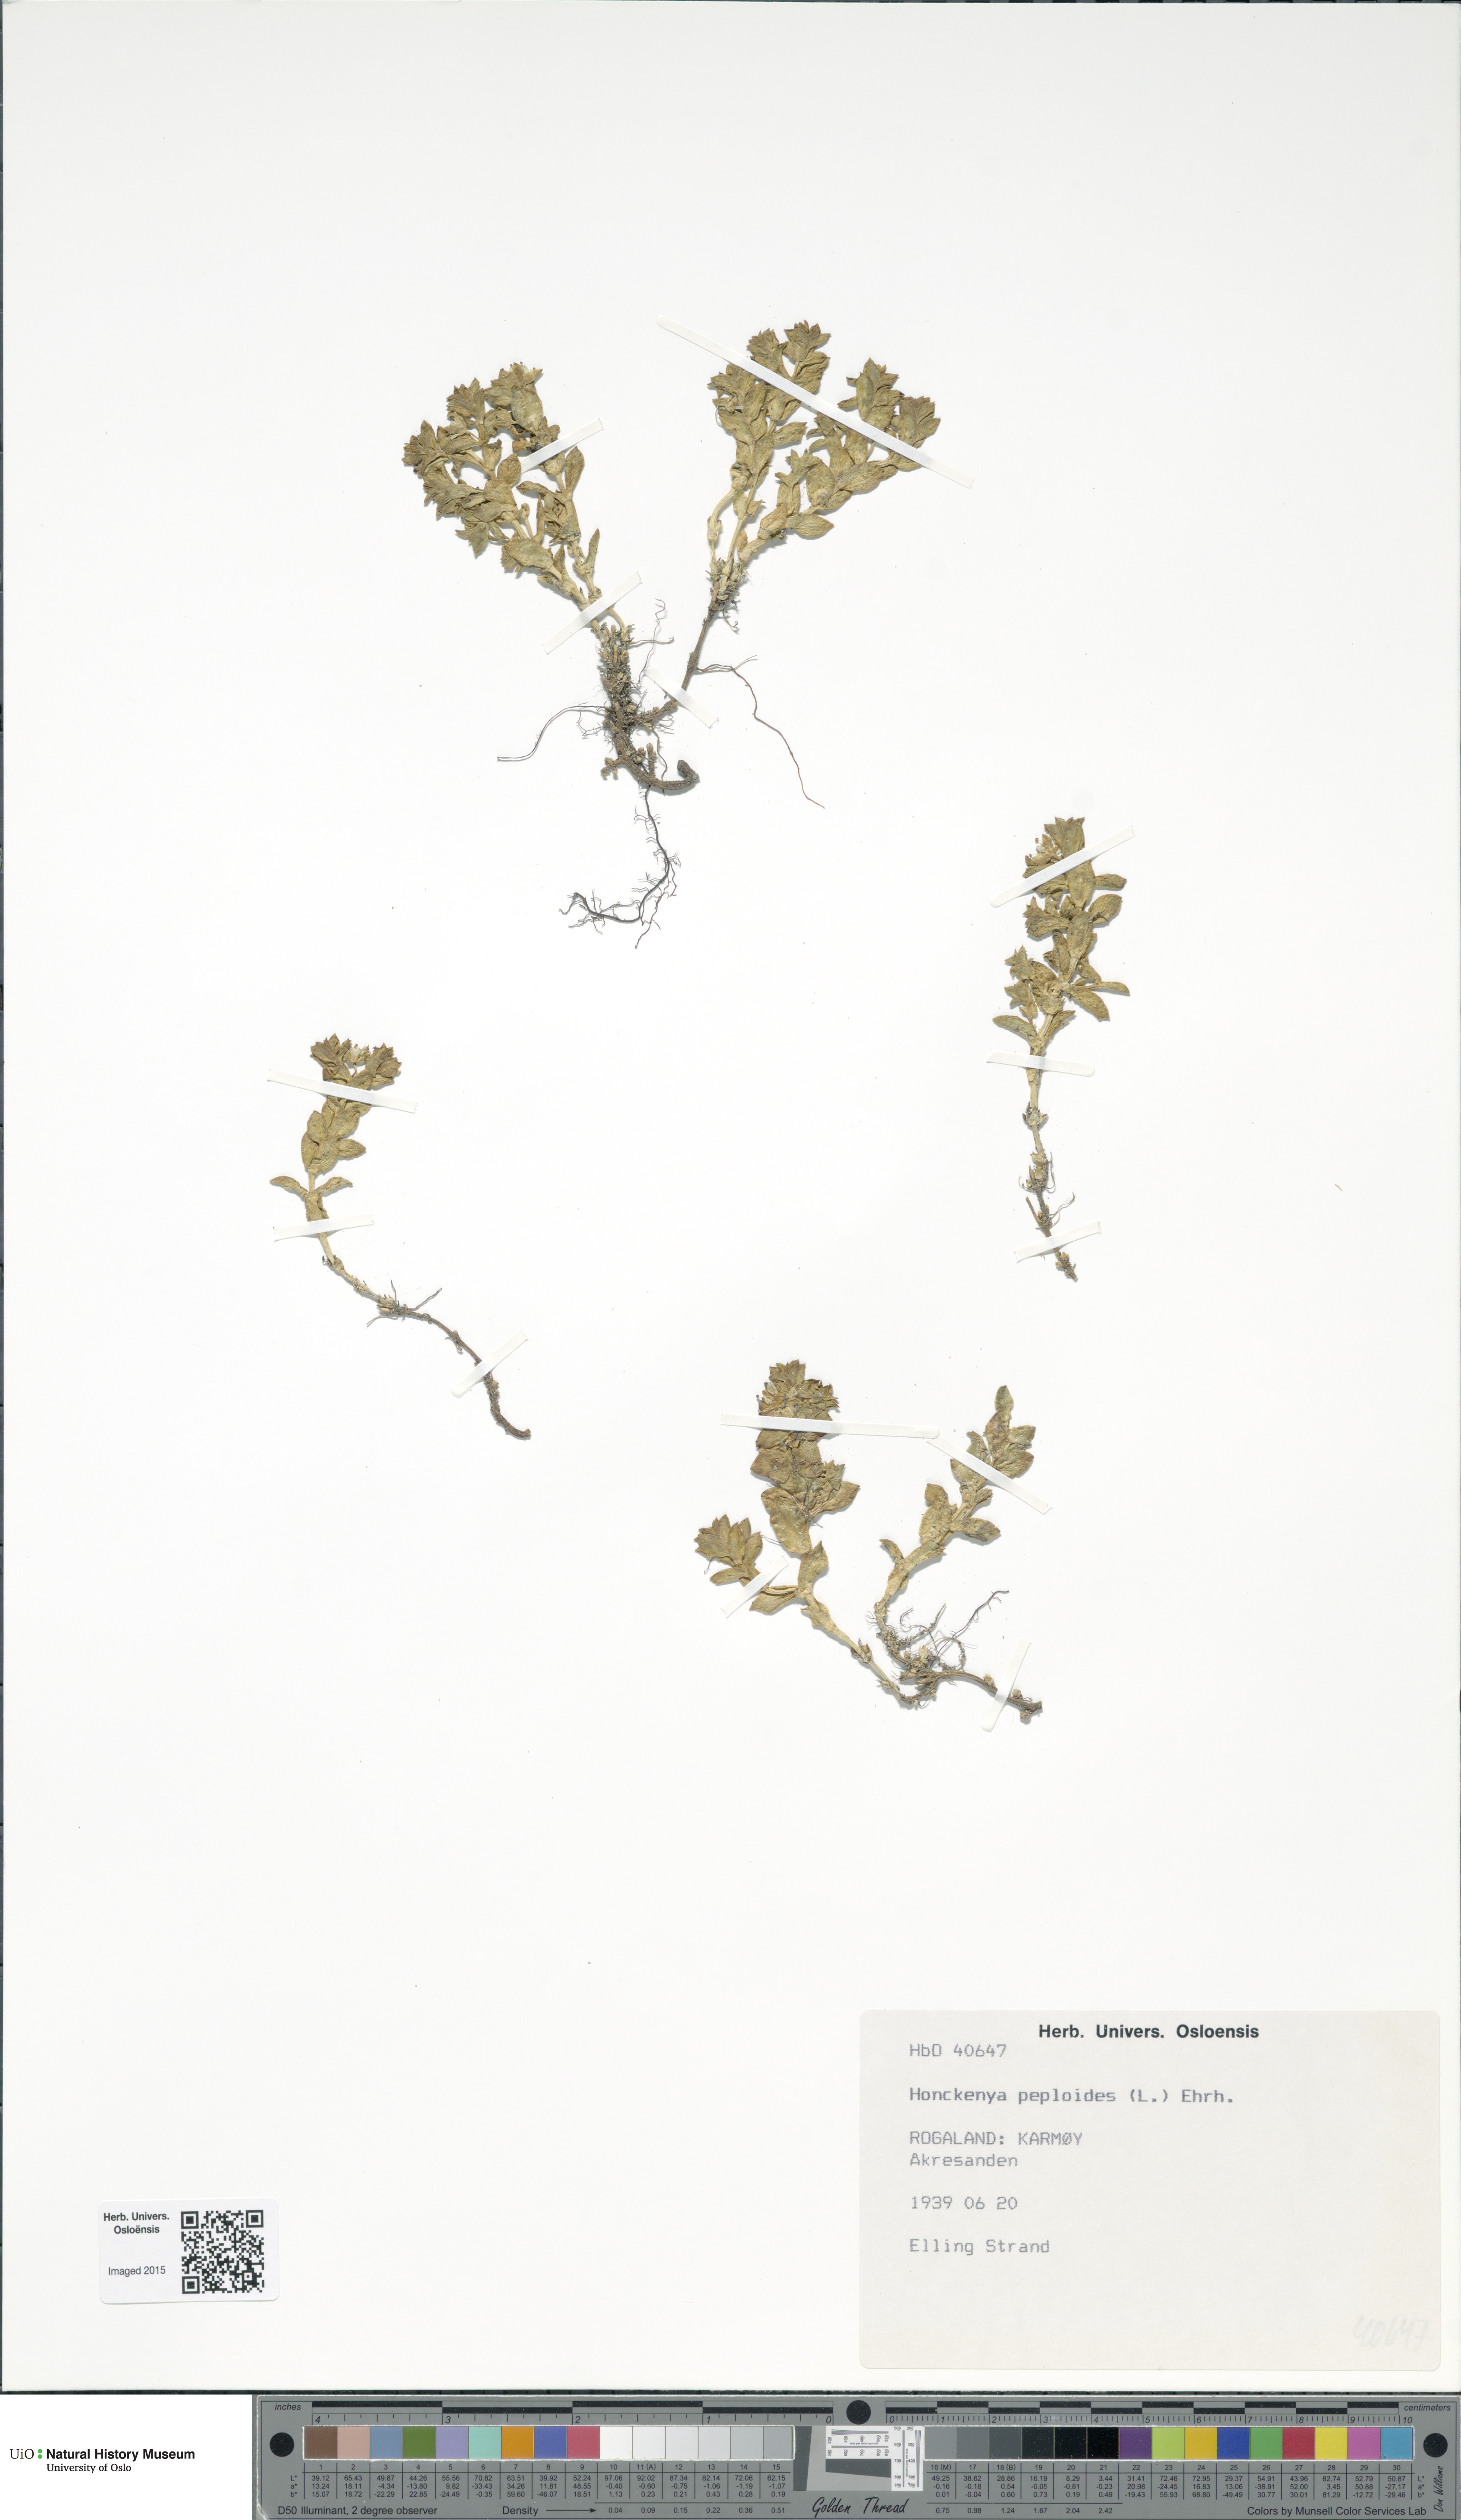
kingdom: Plantae
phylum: Tracheophyta
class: Magnoliopsida
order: Caryophyllales
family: Caryophyllaceae
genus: Honckenya
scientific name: Honckenya peploides
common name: Sea sandwort
